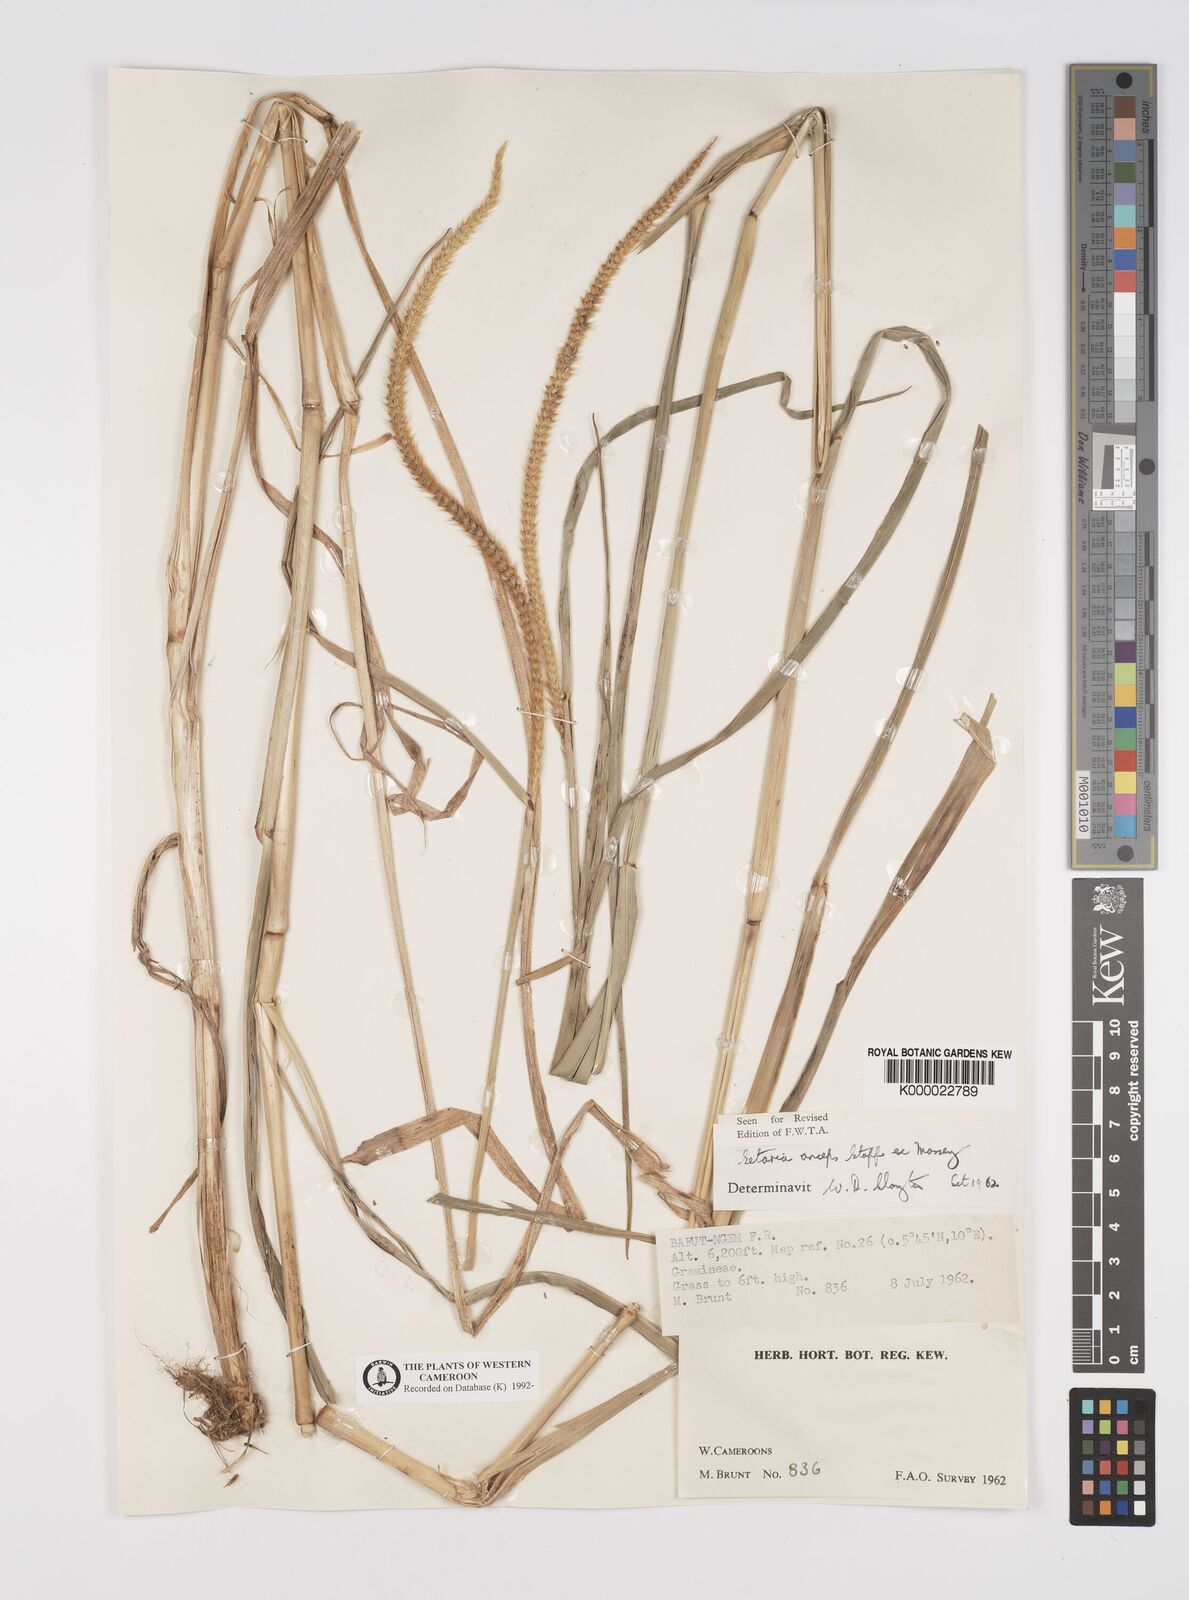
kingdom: Plantae
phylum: Tracheophyta
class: Liliopsida
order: Poales
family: Poaceae
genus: Setaria
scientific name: Setaria sphacelata
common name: African bristlegrass
